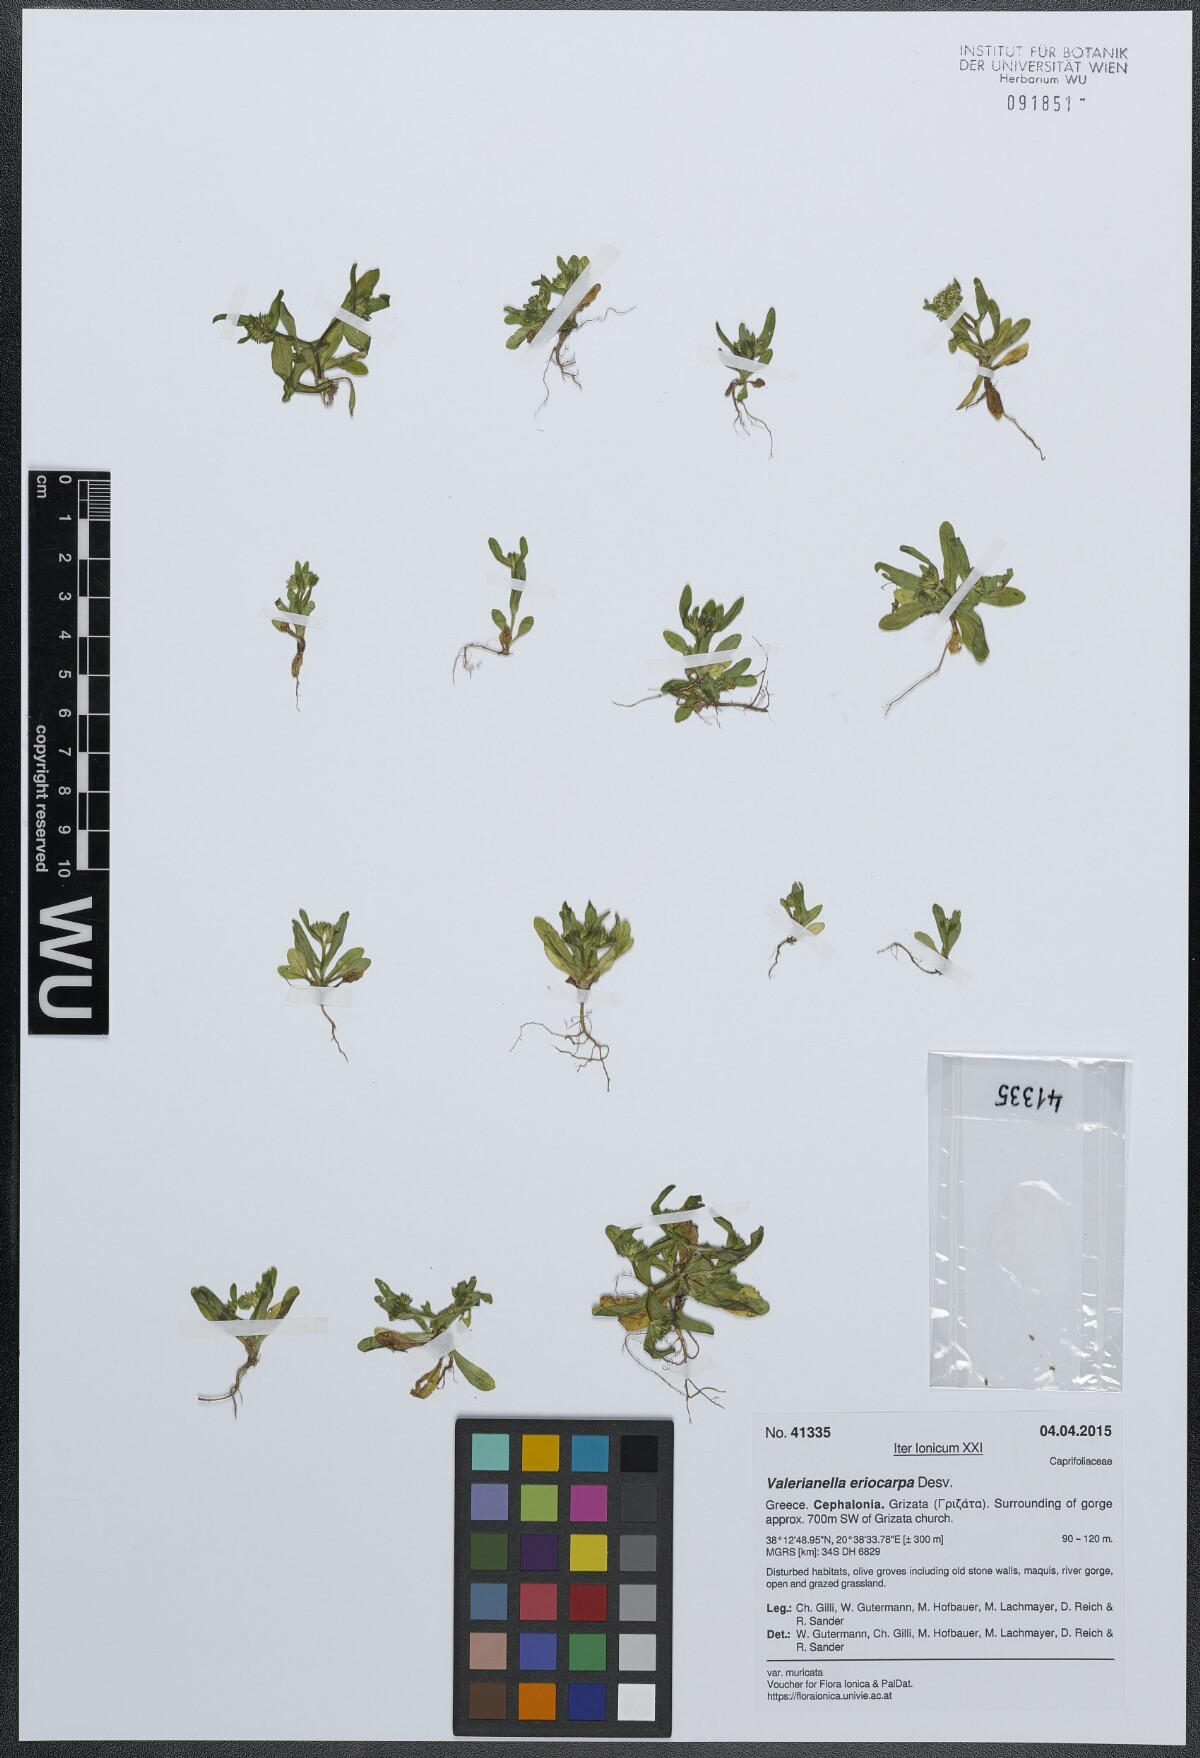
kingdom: Plantae
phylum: Tracheophyta
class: Magnoliopsida
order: Dipsacales
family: Caprifoliaceae
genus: Valerianella
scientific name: Valerianella eriocarpa
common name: Hairy-fruited cornsalad
